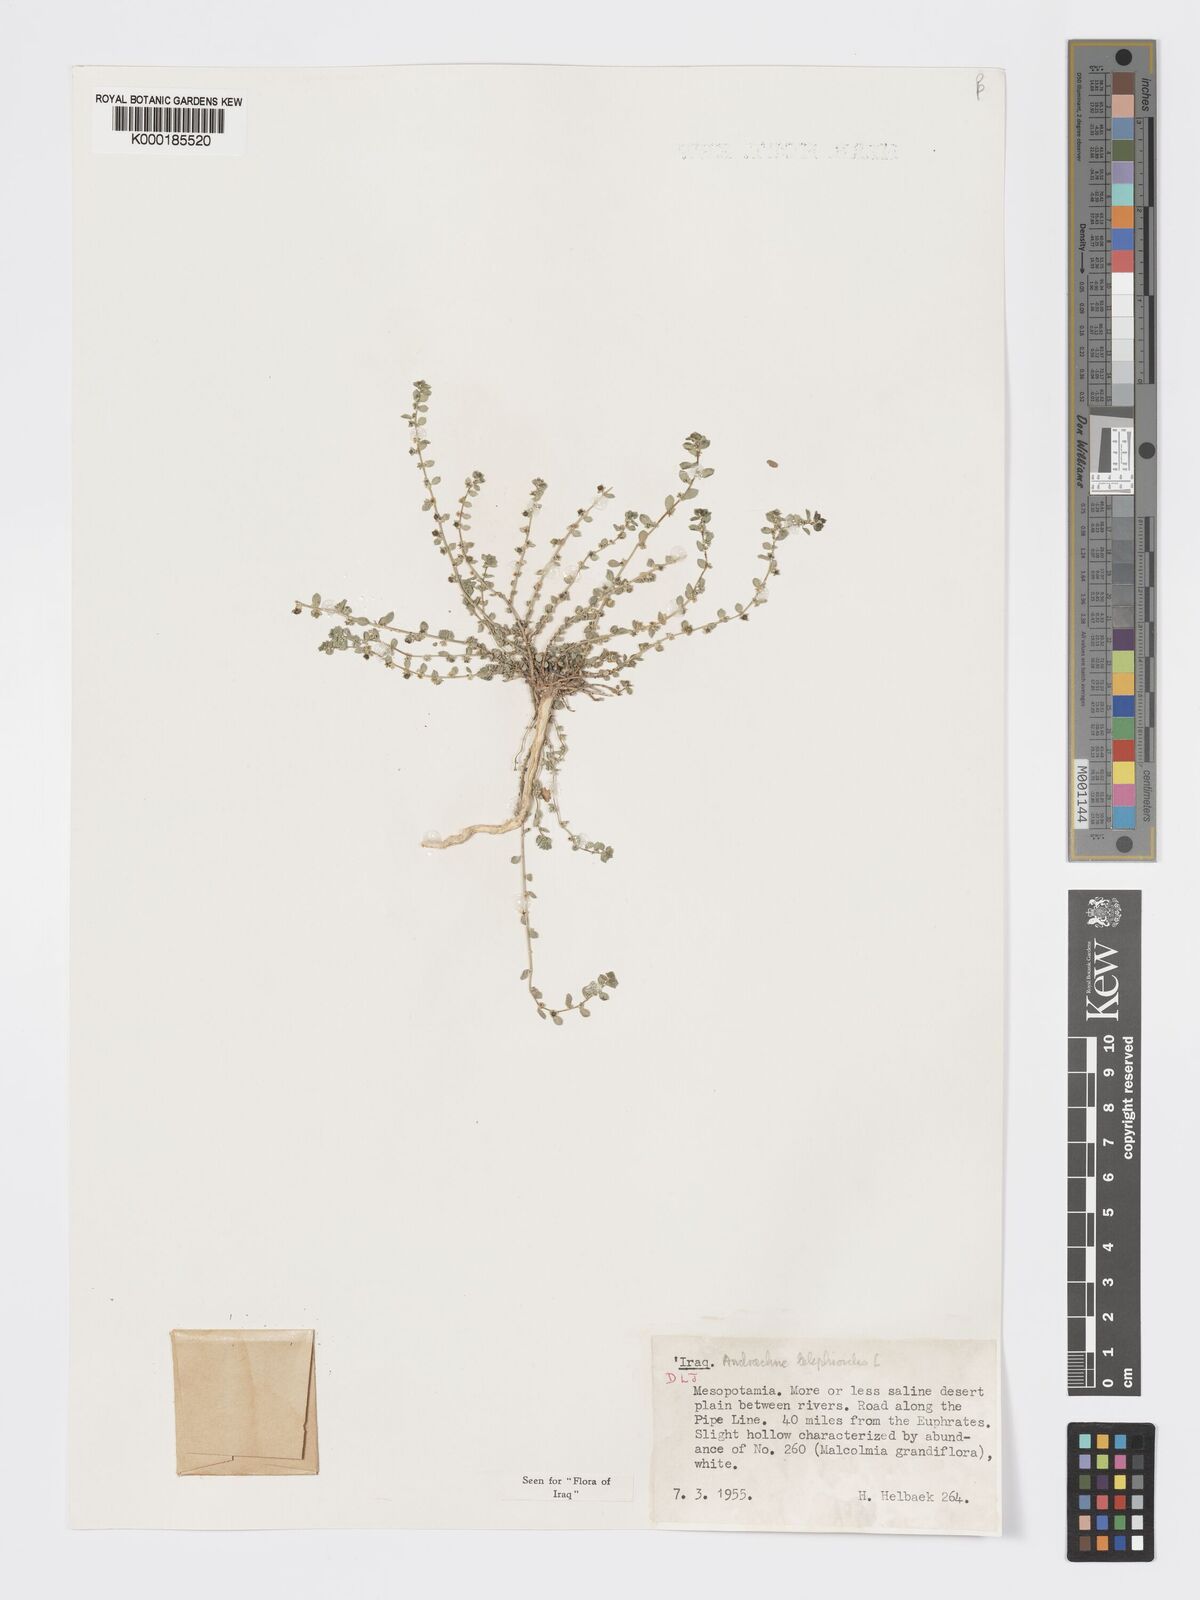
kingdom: Plantae
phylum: Tracheophyta
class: Magnoliopsida
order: Malpighiales
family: Phyllanthaceae
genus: Andrachne
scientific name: Andrachne telephioides
